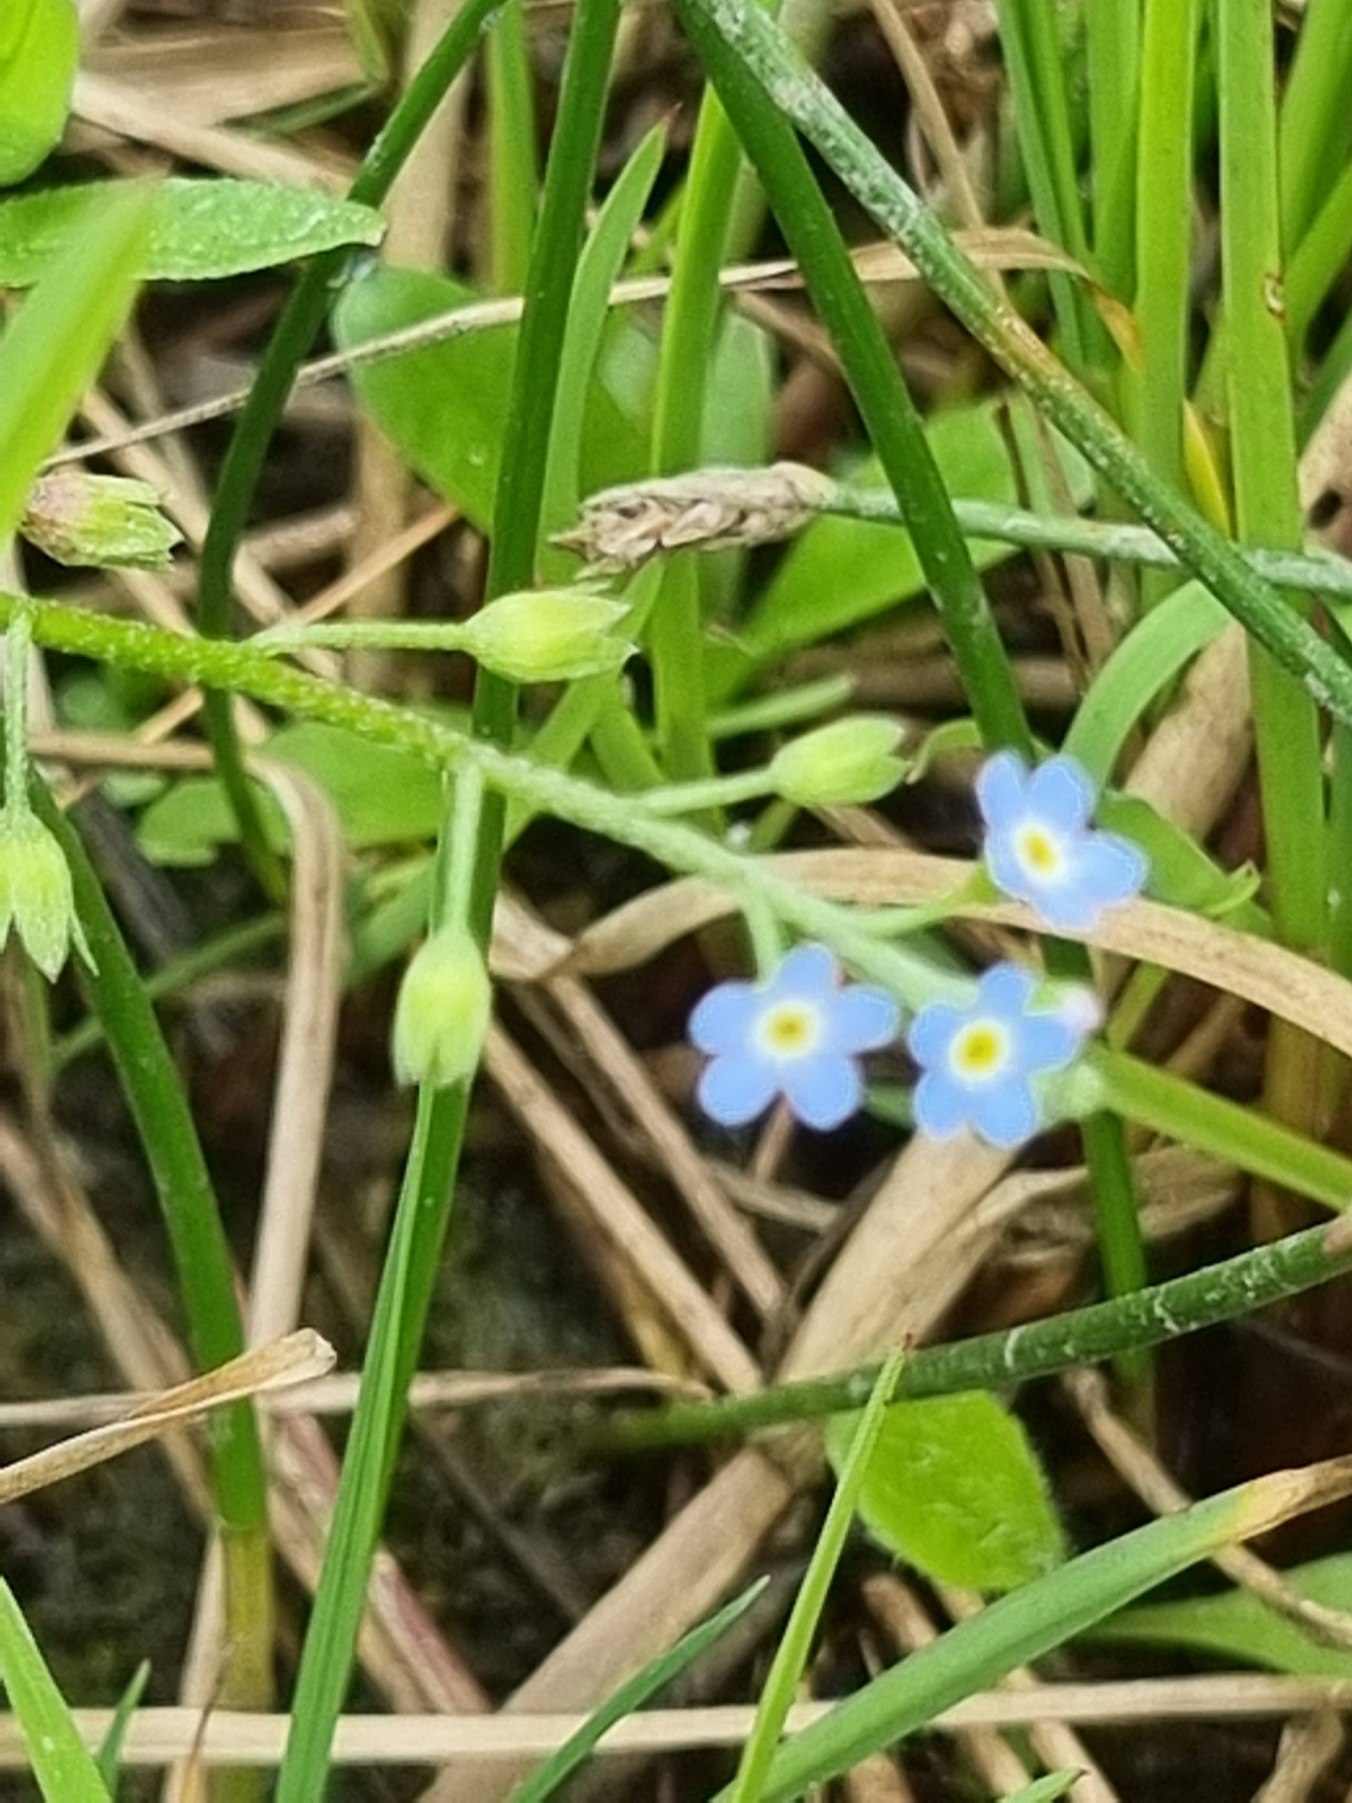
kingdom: Plantae
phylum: Tracheophyta
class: Magnoliopsida
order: Boraginales
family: Boraginaceae
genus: Myosotis
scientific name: Myosotis scorpioides
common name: Eng-forglemmigej
